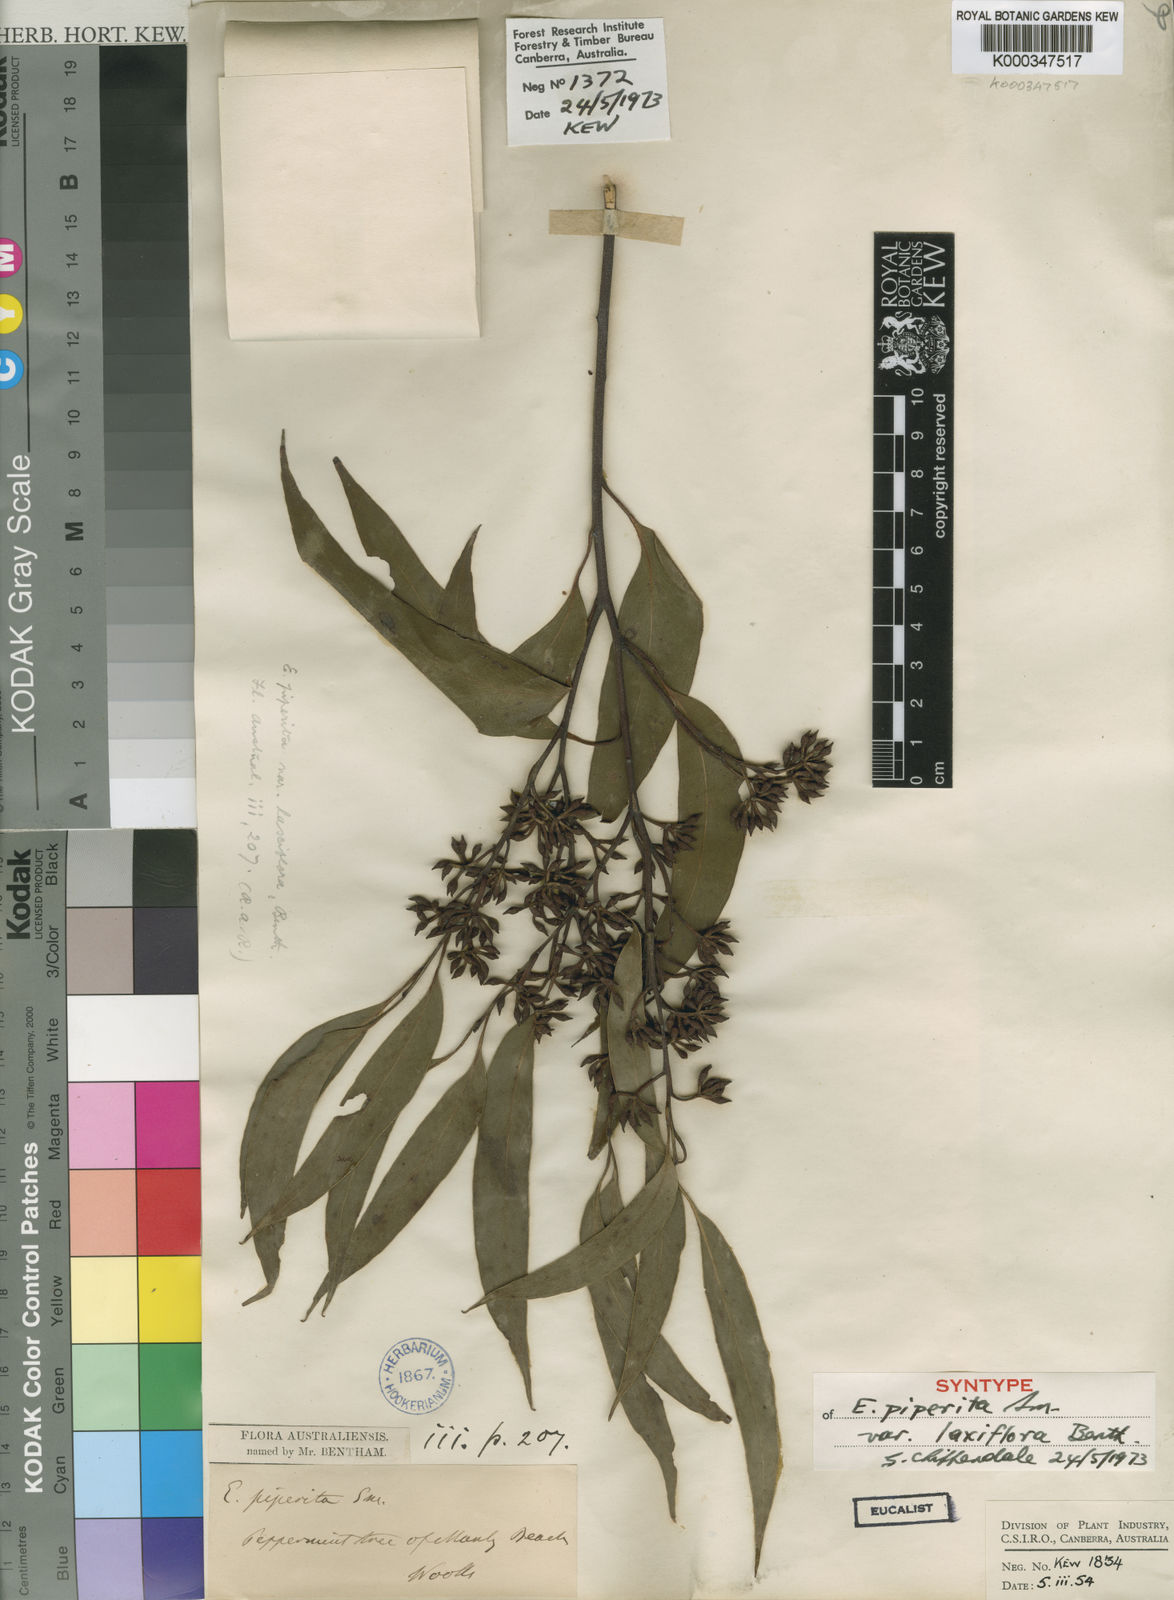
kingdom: Plantae
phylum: Tracheophyta
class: Magnoliopsida
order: Myrtales
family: Myrtaceae
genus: Eucalyptus
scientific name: Eucalyptus piperita
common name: Sydney peppermint
